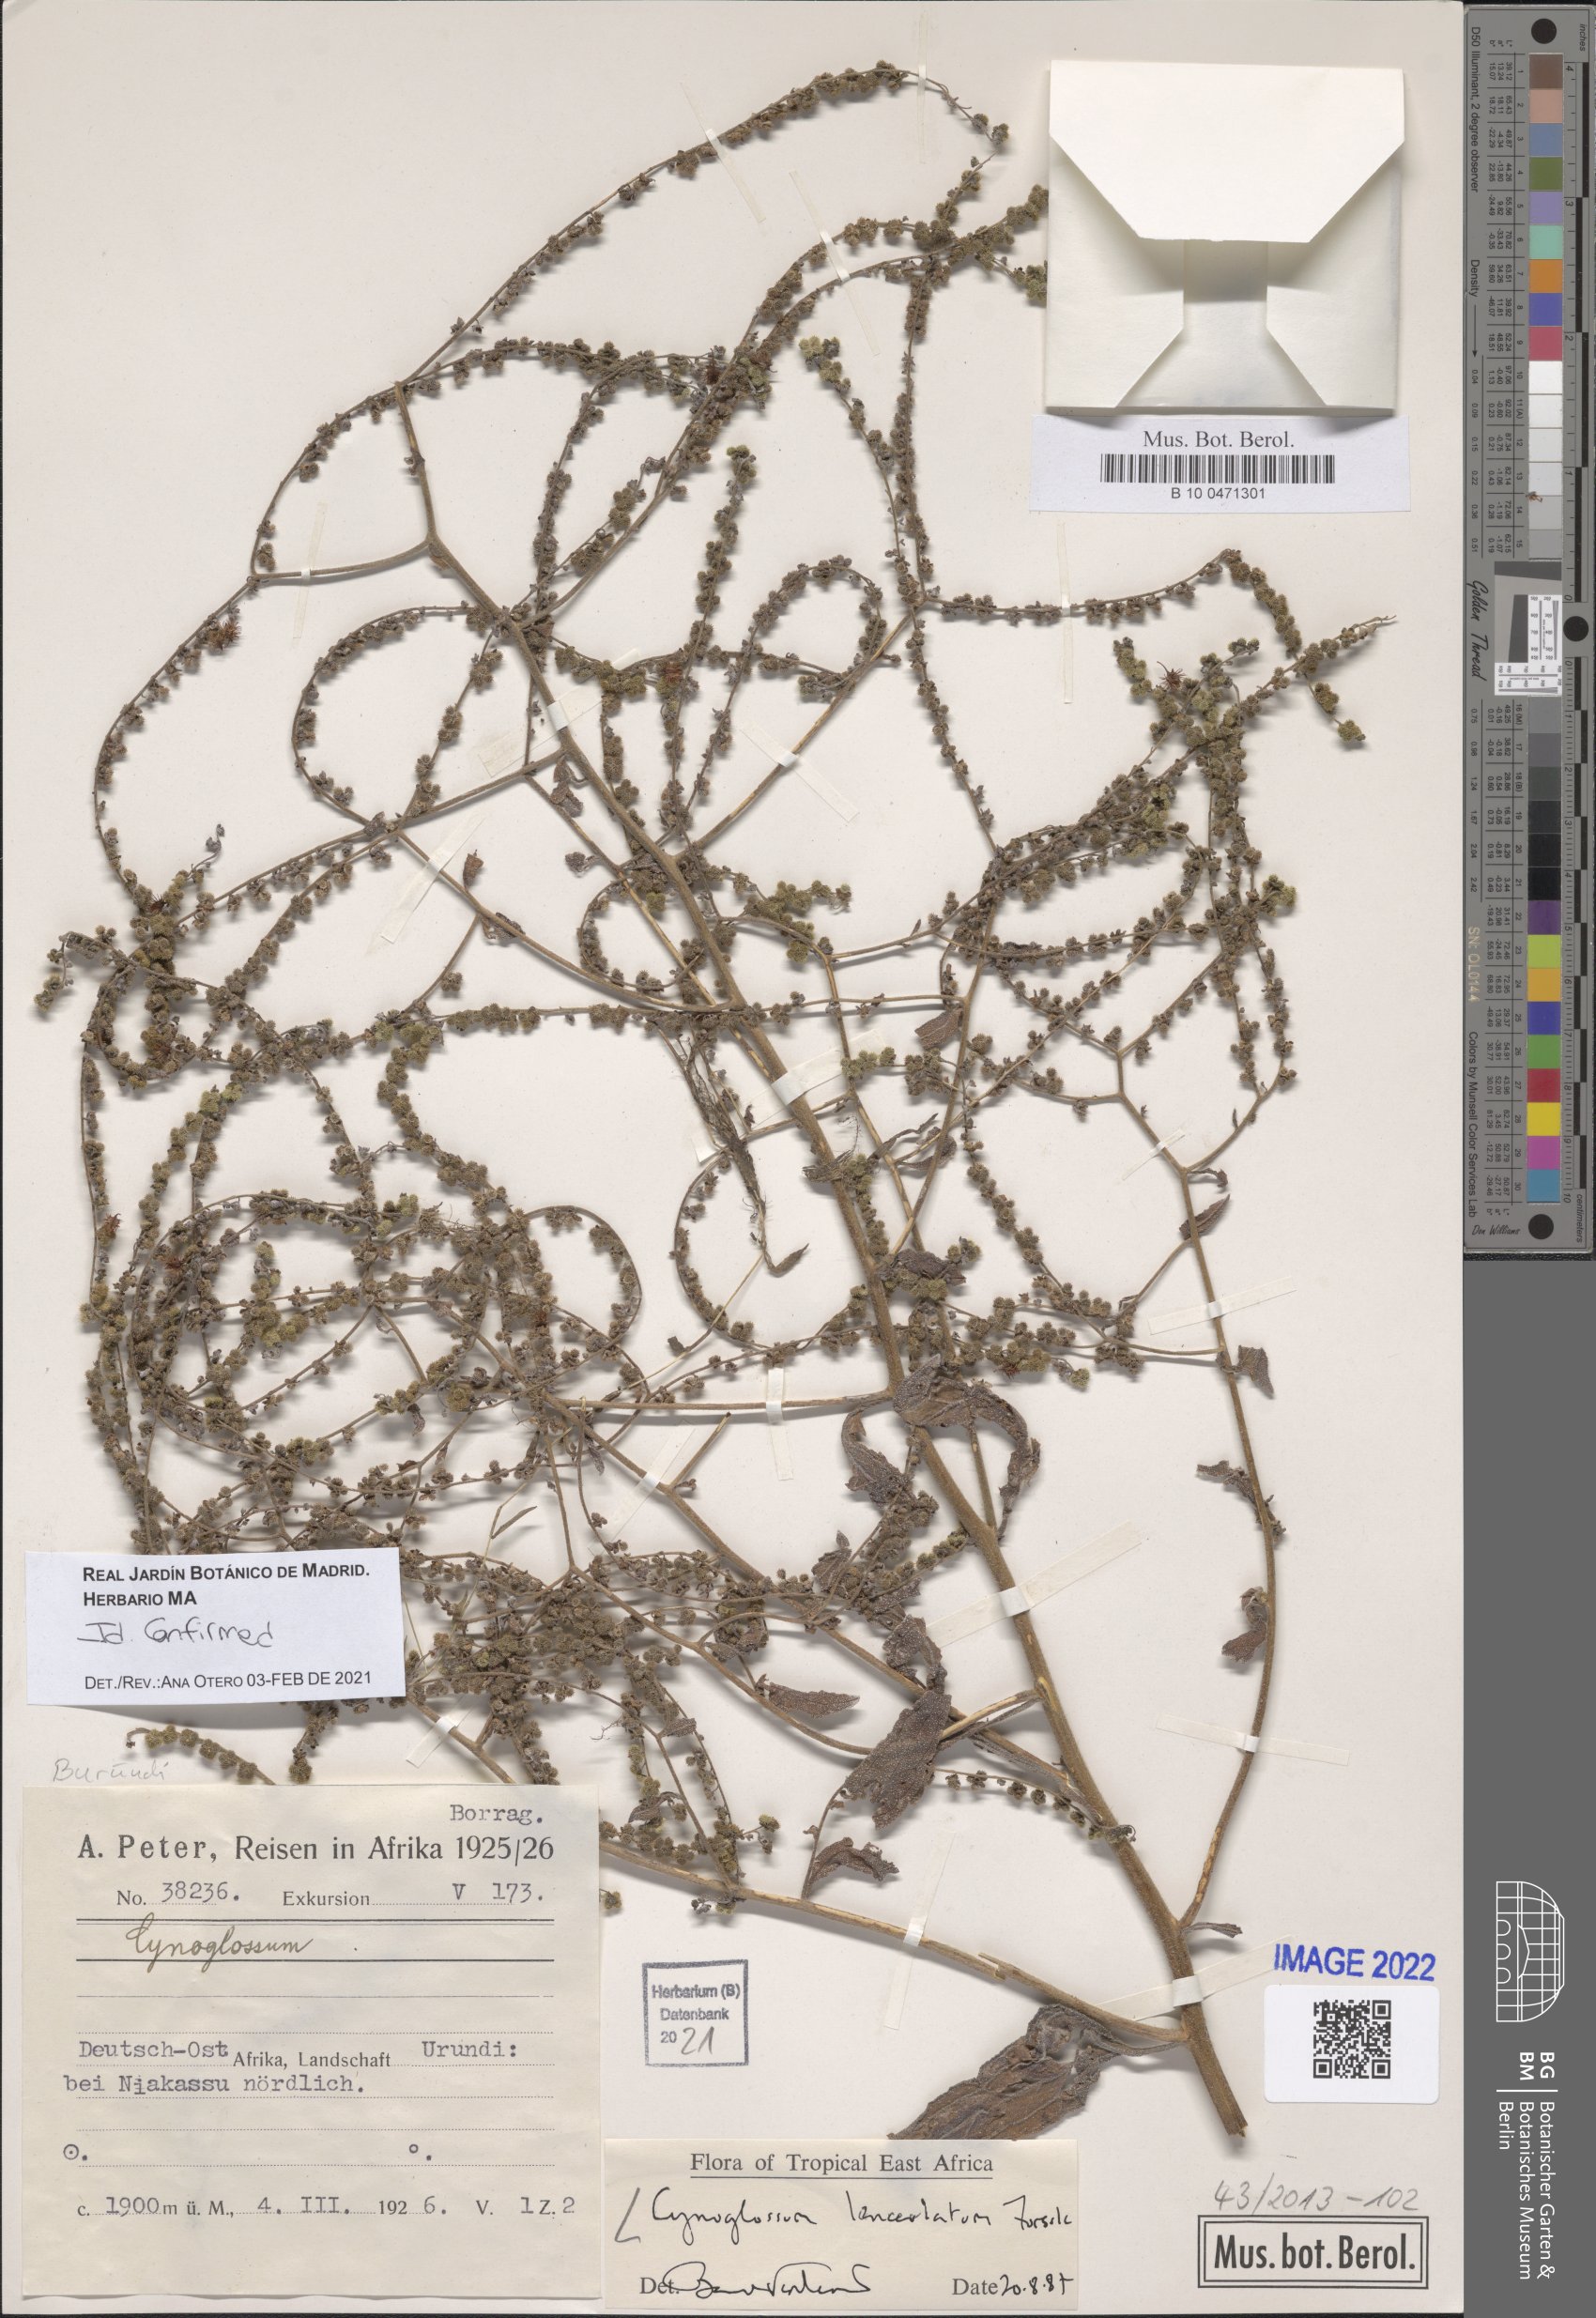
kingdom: Plantae
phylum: Tracheophyta
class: Magnoliopsida
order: Boraginales
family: Boraginaceae
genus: Paracynoglossum
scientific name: Paracynoglossum lanceolatum
